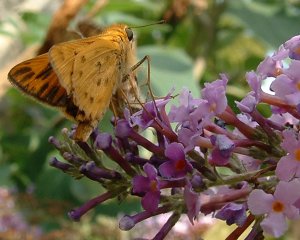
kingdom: Animalia
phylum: Arthropoda
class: Insecta
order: Lepidoptera
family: Hesperiidae
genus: Hylephila
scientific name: Hylephila phyleus
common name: Fiery Skipper
